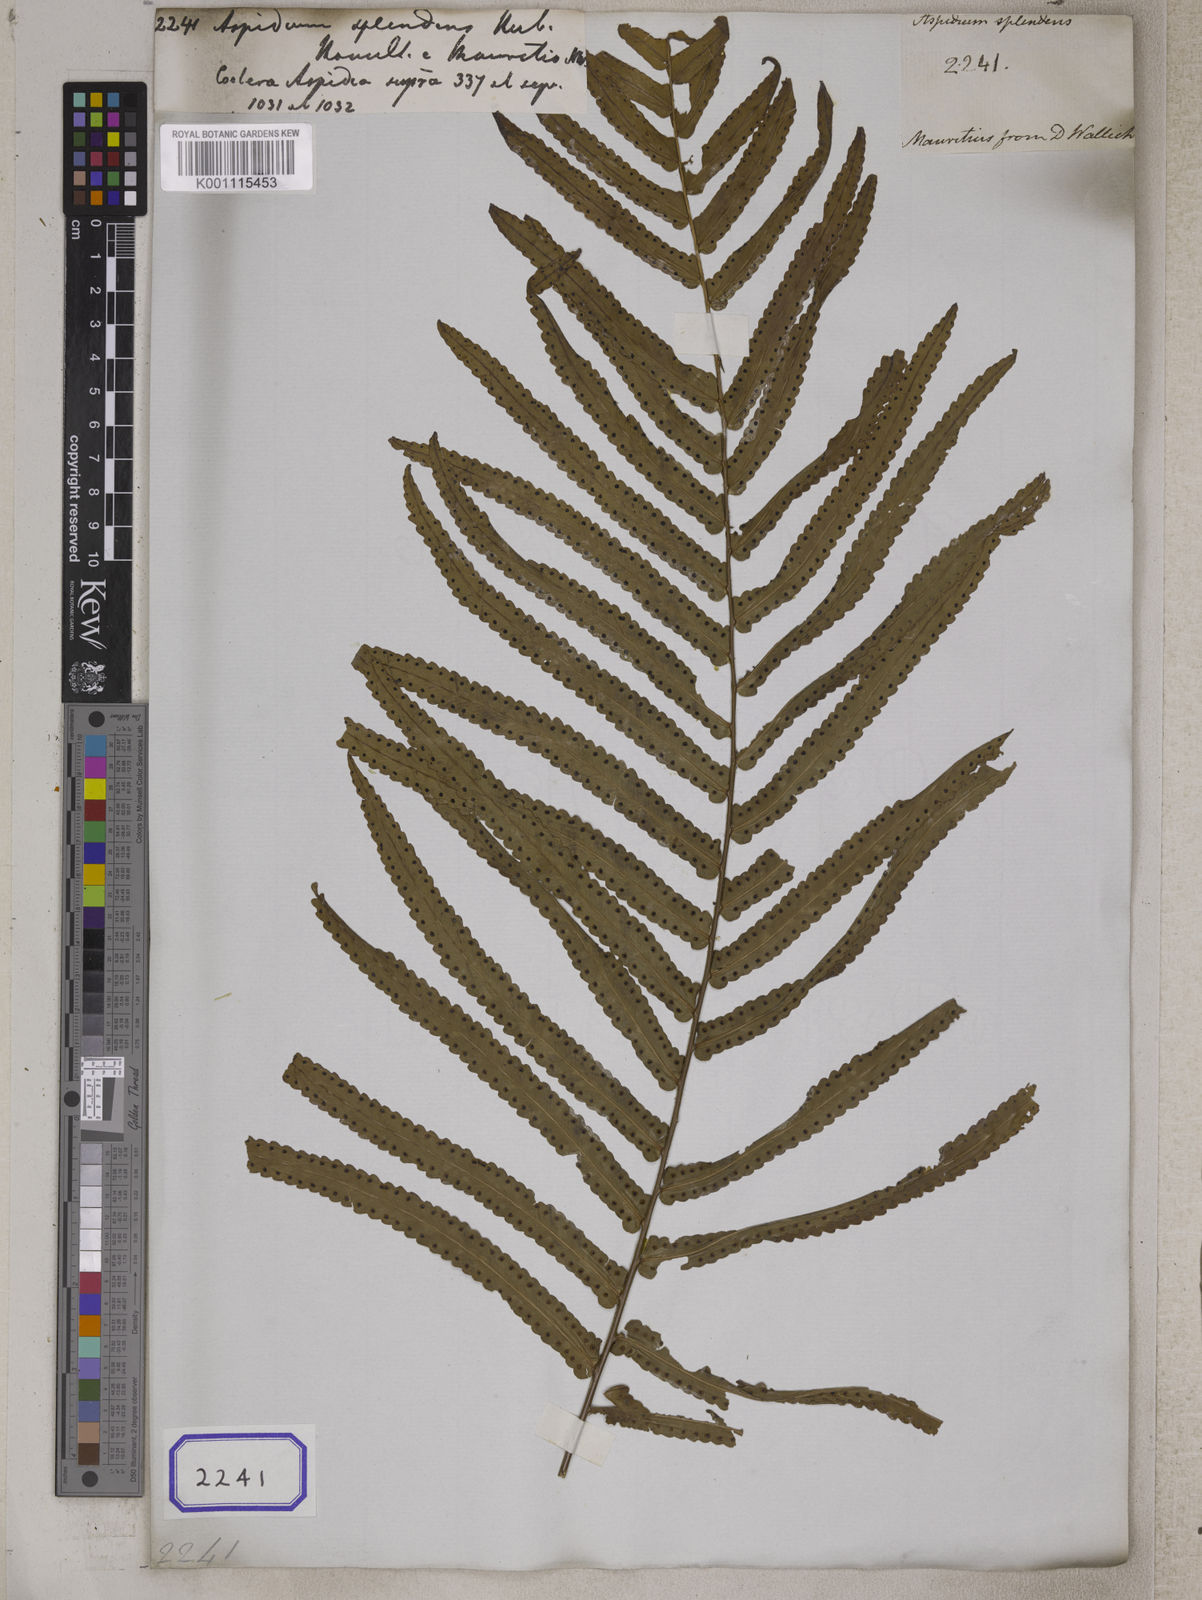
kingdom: Plantae
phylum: Tracheophyta
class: Polypodiopsida
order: Polypodiales
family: Tectariaceae
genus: Tectaria
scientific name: Tectaria Aspidium spec
